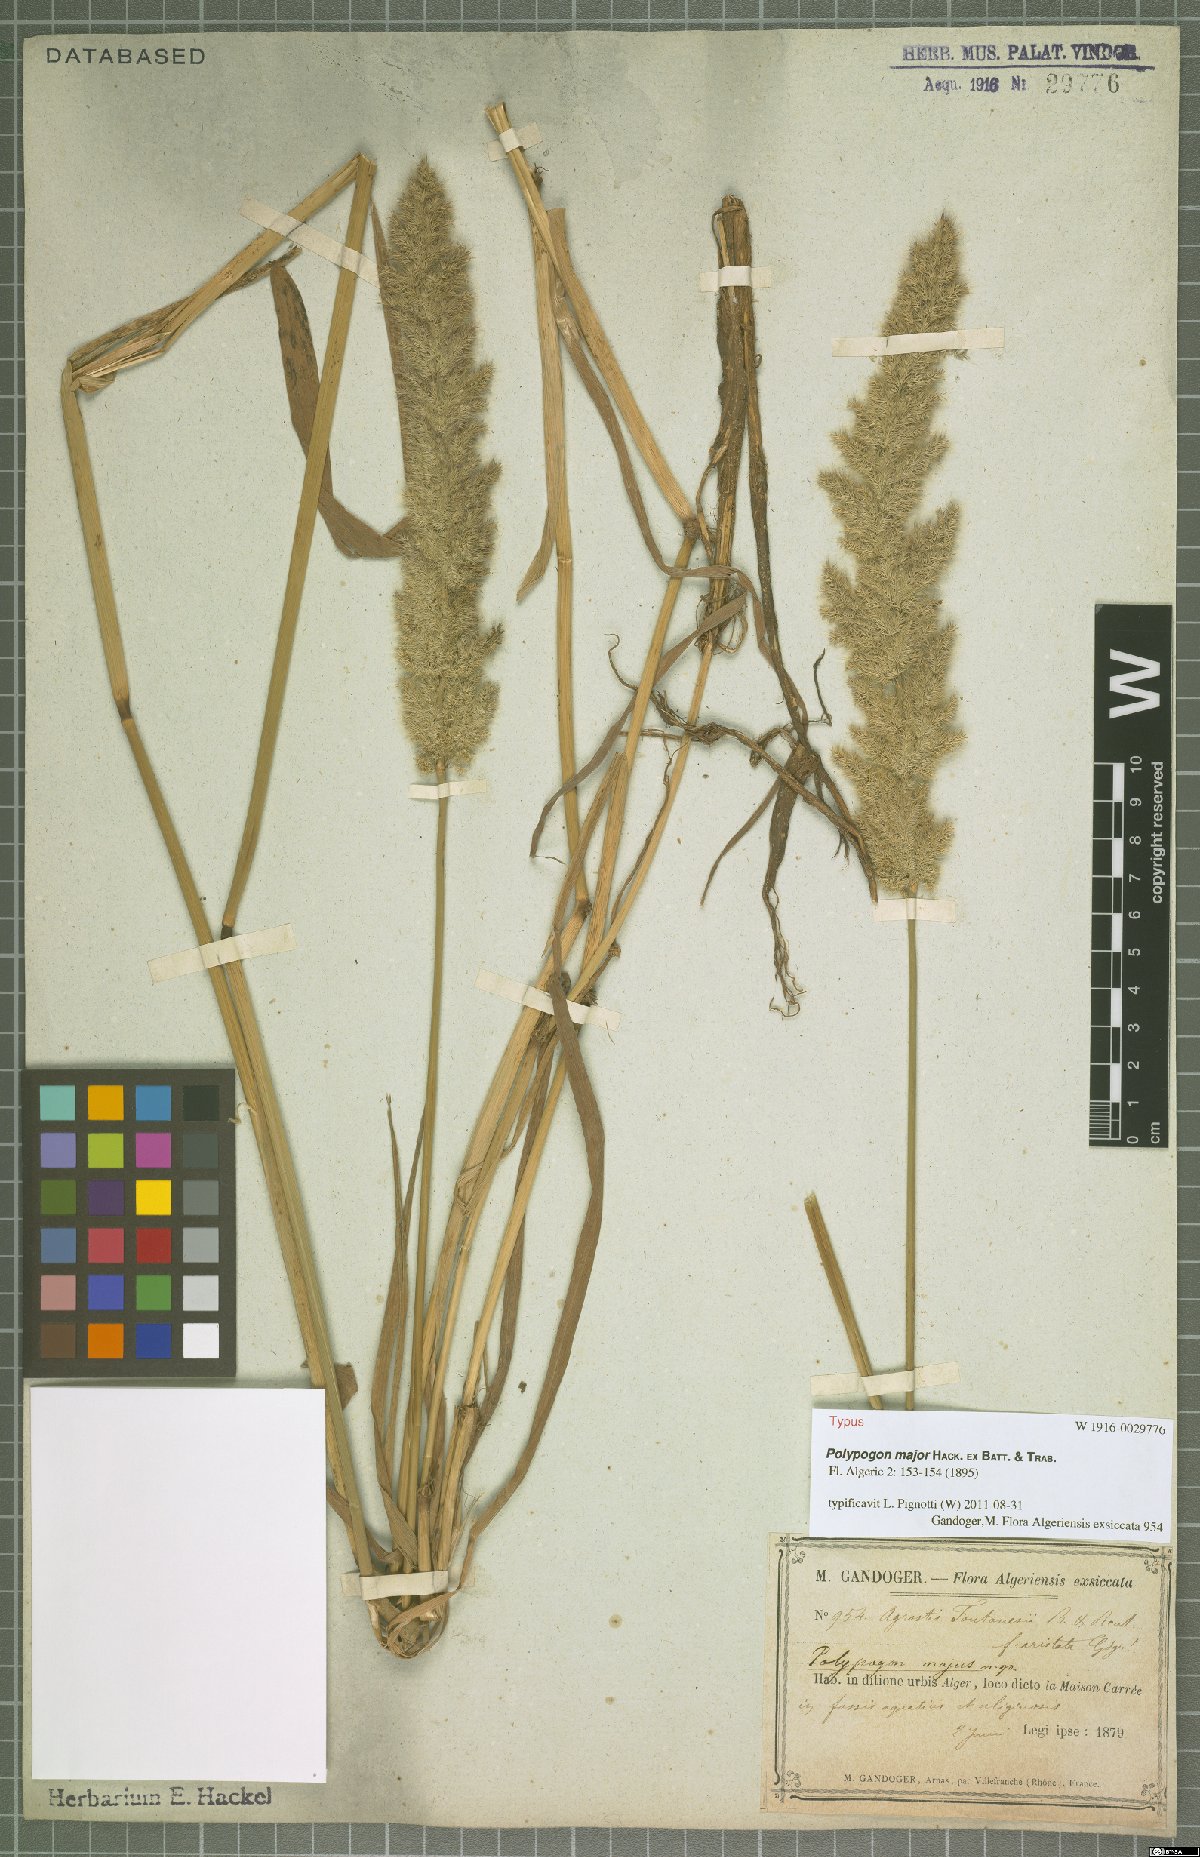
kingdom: Plantae
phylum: Tracheophyta
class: Liliopsida
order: Poales
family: Poaceae
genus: Agropogon
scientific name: Agropogon lutosus
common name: Coast agropogon
